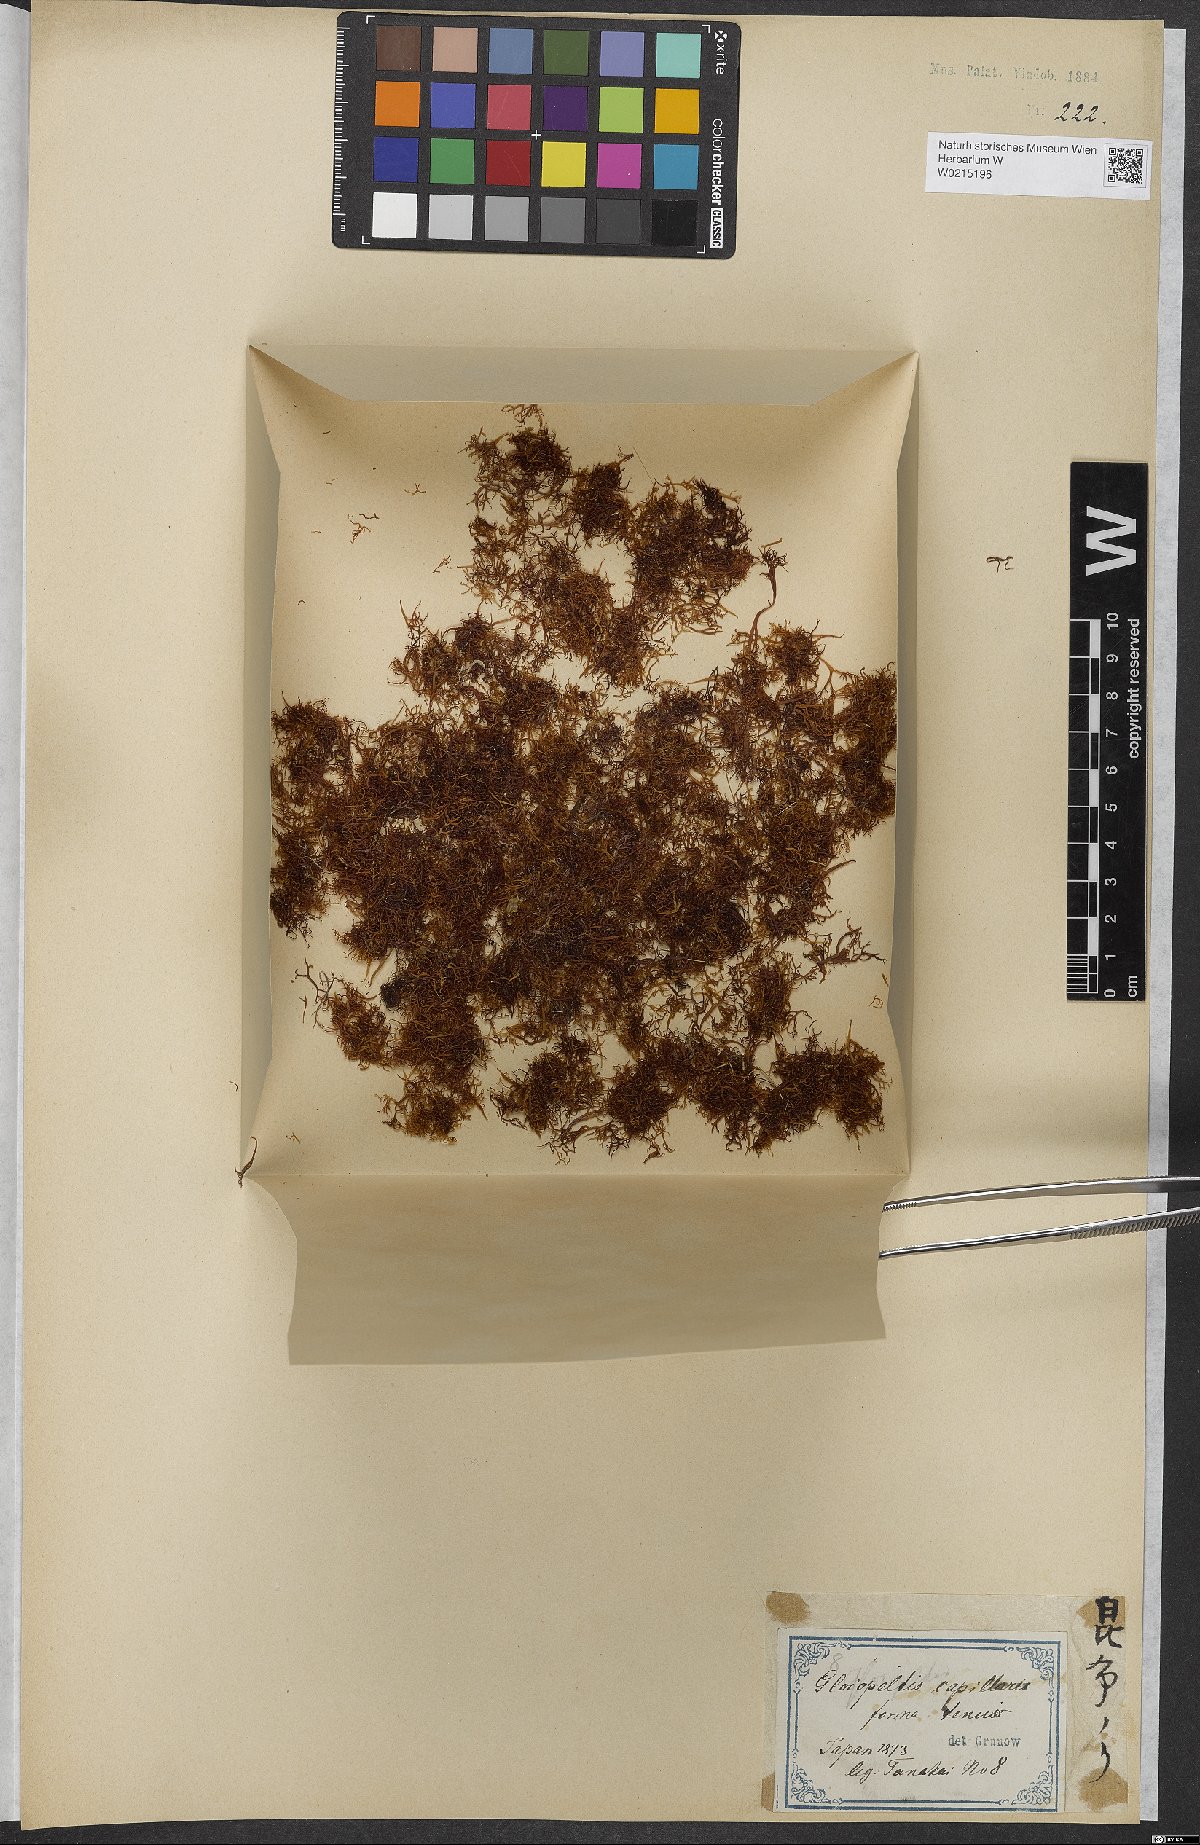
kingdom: Plantae
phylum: Rhodophyta
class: Florideophyceae
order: Gigartinales
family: Endocladiaceae
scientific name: Endocladiaceae
